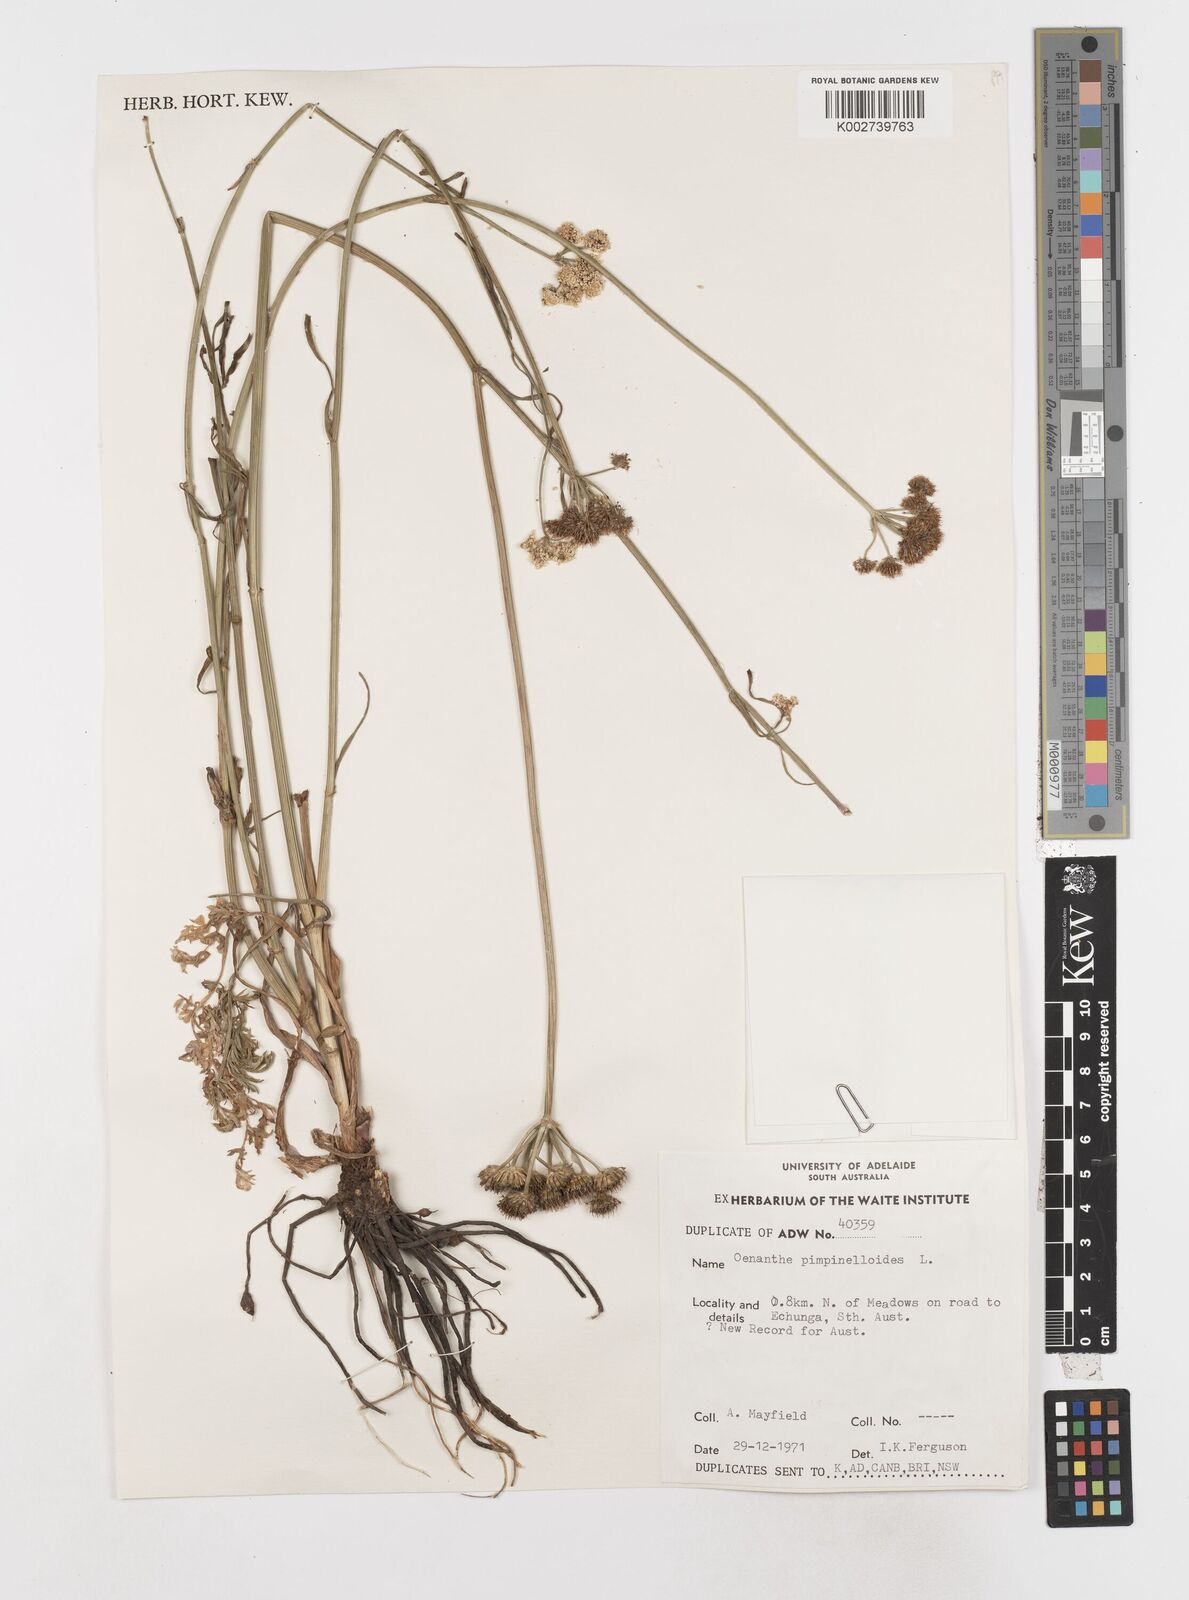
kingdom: Plantae
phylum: Tracheophyta
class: Magnoliopsida
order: Apiales
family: Apiaceae
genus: Oenanthe
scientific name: Oenanthe pimpinelloides
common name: Corky-fruited water-dropwort
